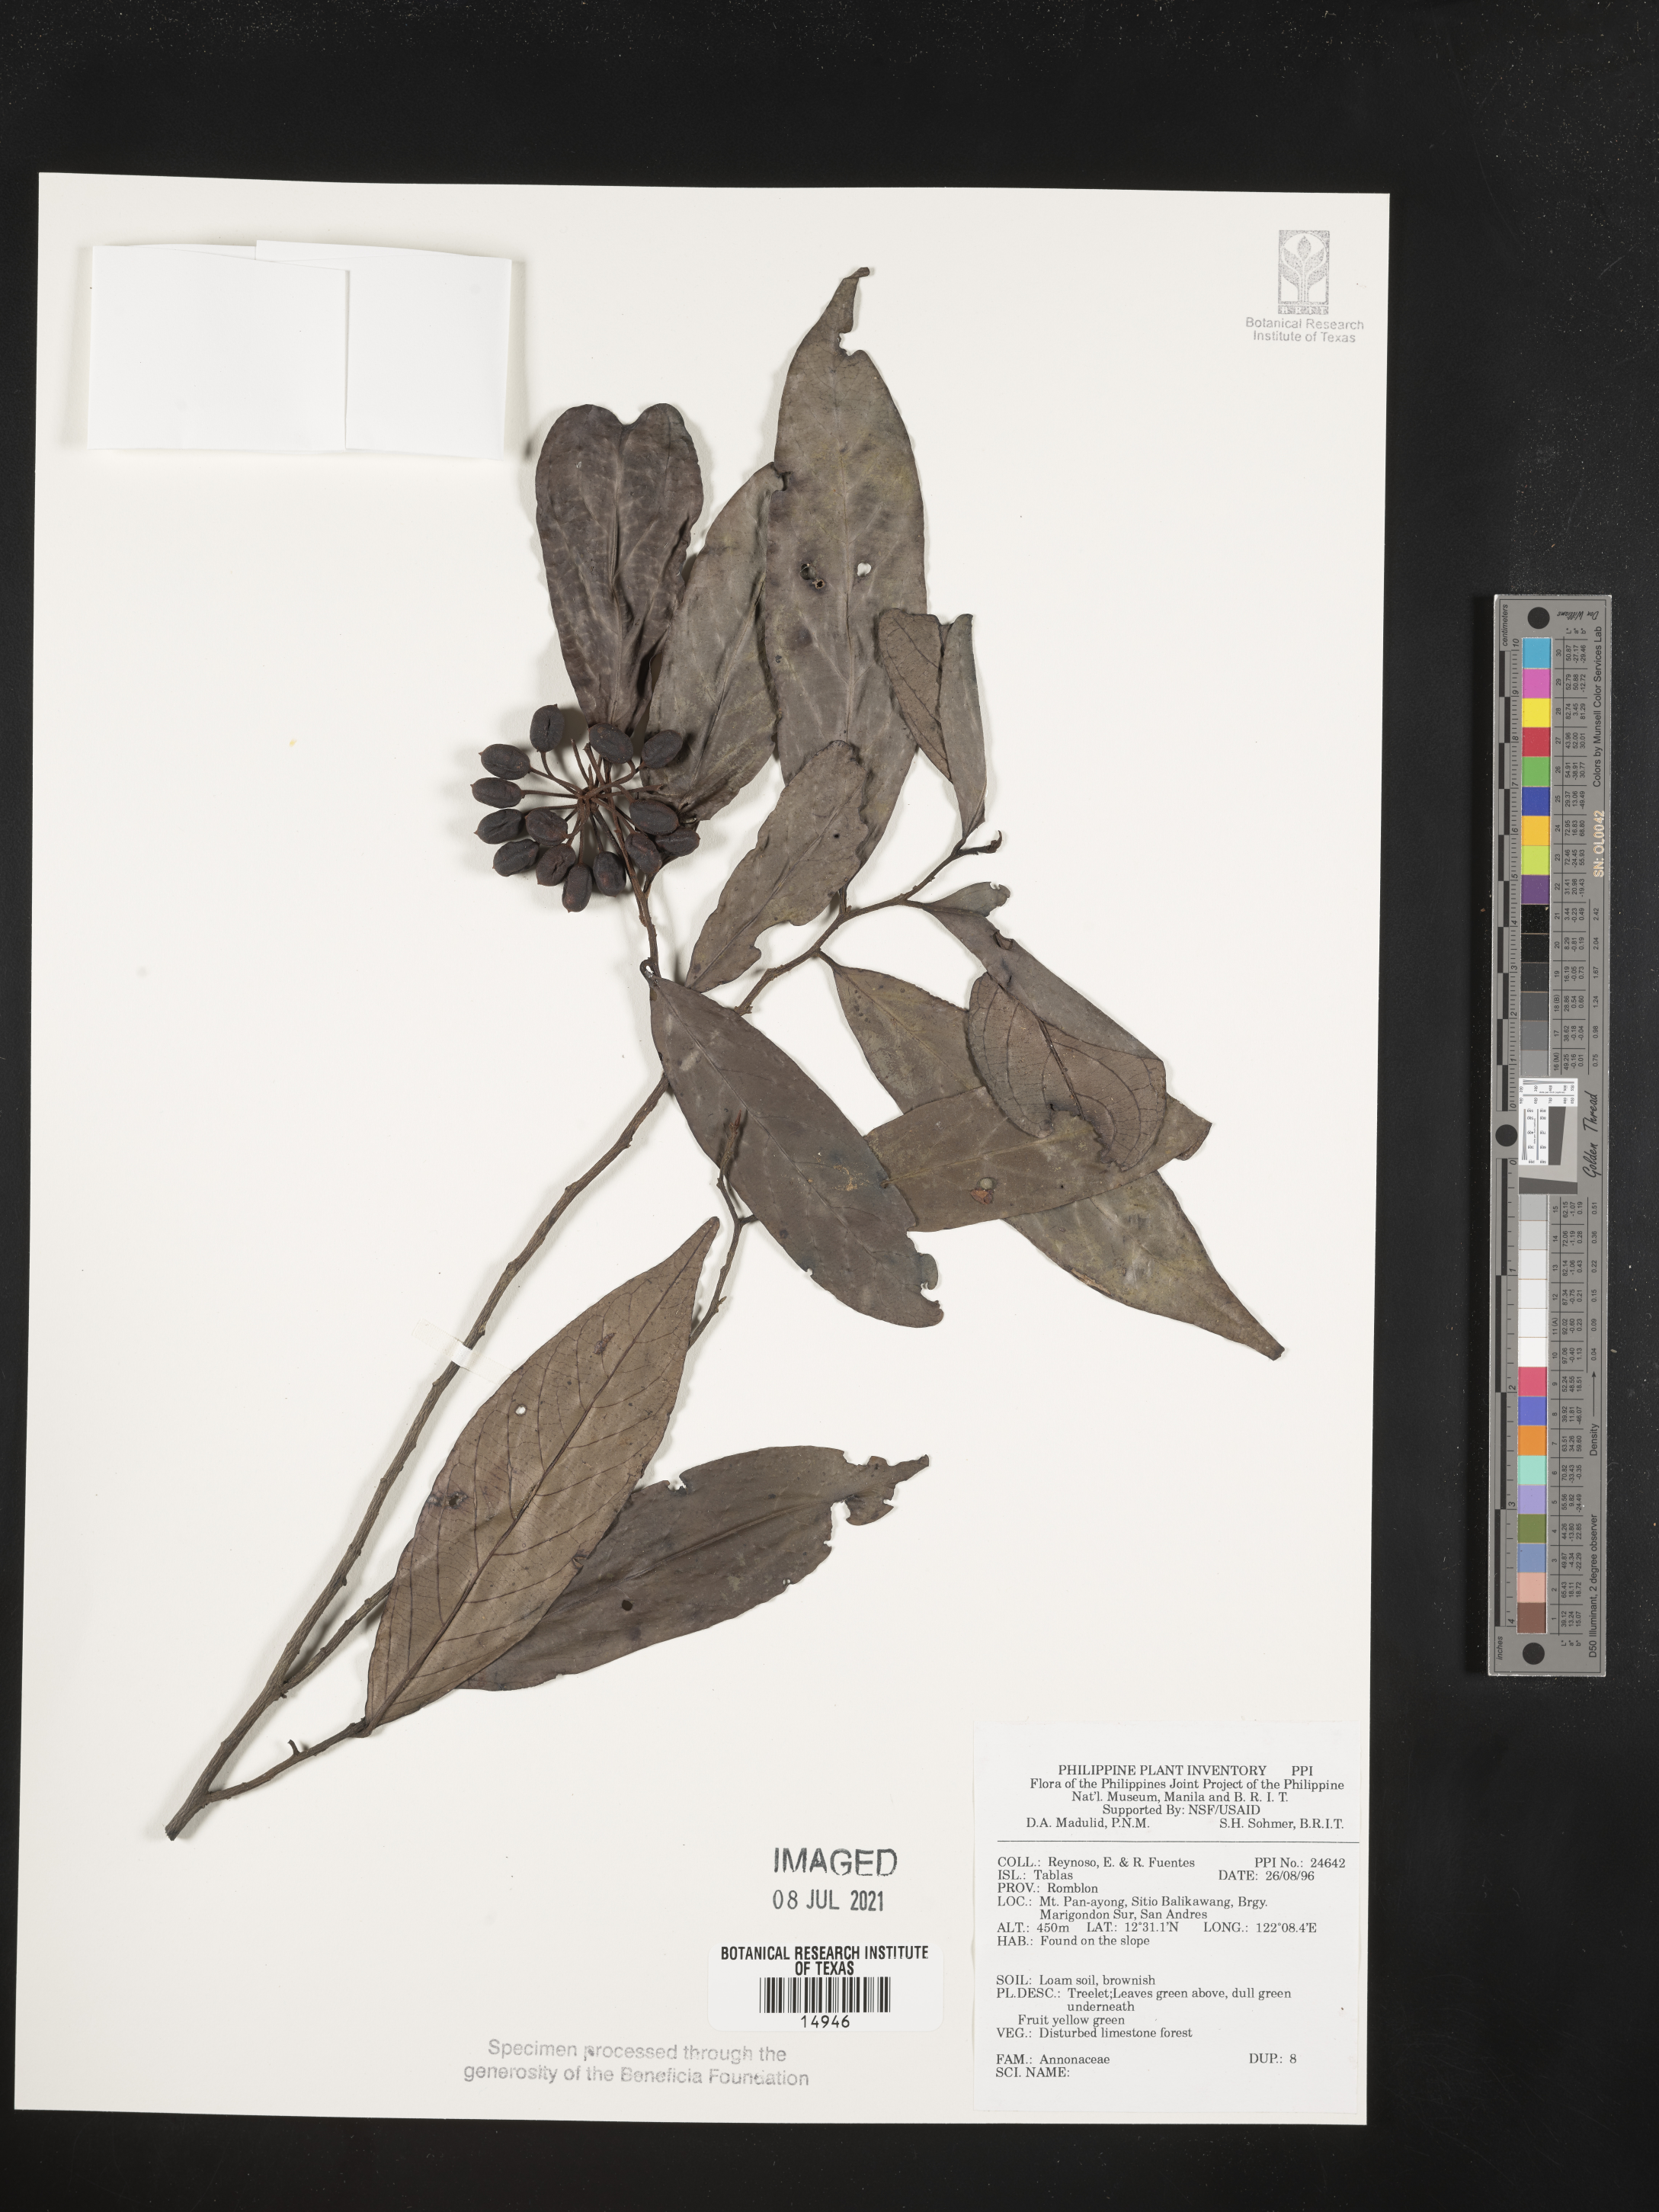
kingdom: Plantae
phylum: Tracheophyta
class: Magnoliopsida
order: Magnoliales
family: Annonaceae
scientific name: Annonaceae
